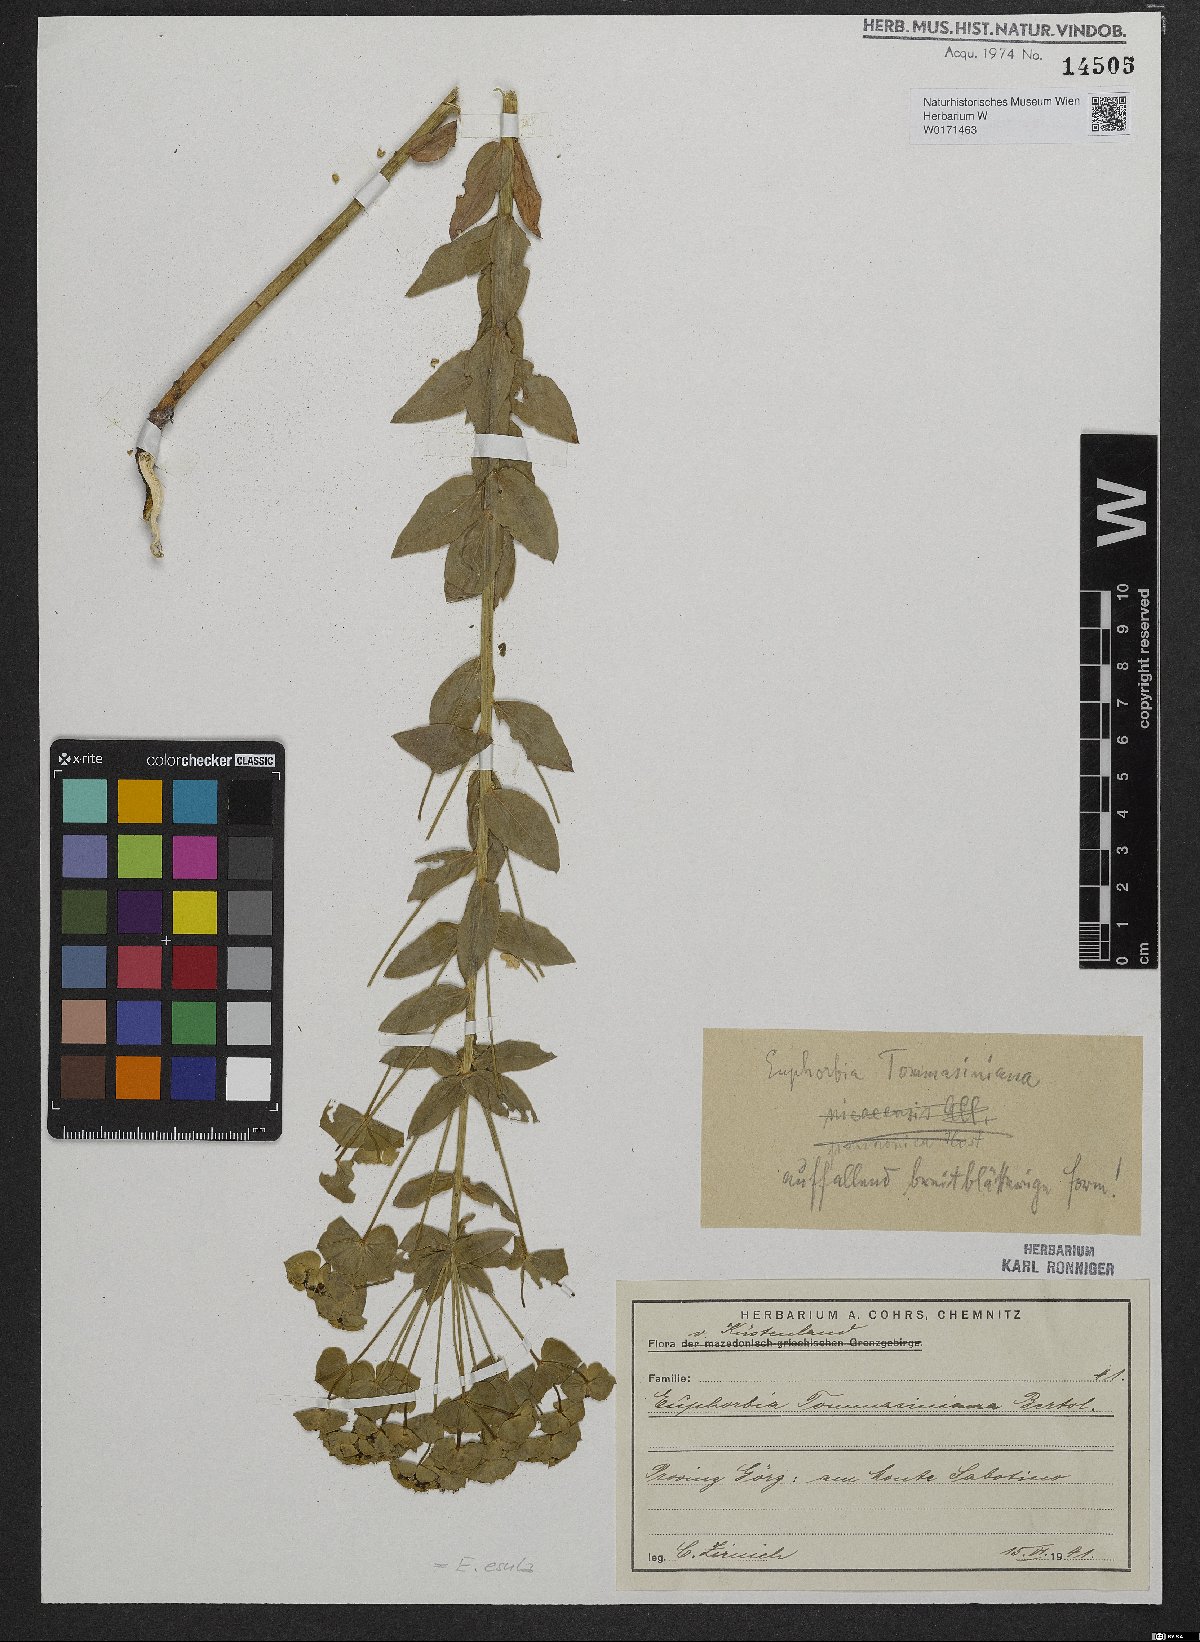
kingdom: Plantae
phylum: Tracheophyta
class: Magnoliopsida
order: Malpighiales
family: Euphorbiaceae
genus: Euphorbia
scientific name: Euphorbia tommasiniana
